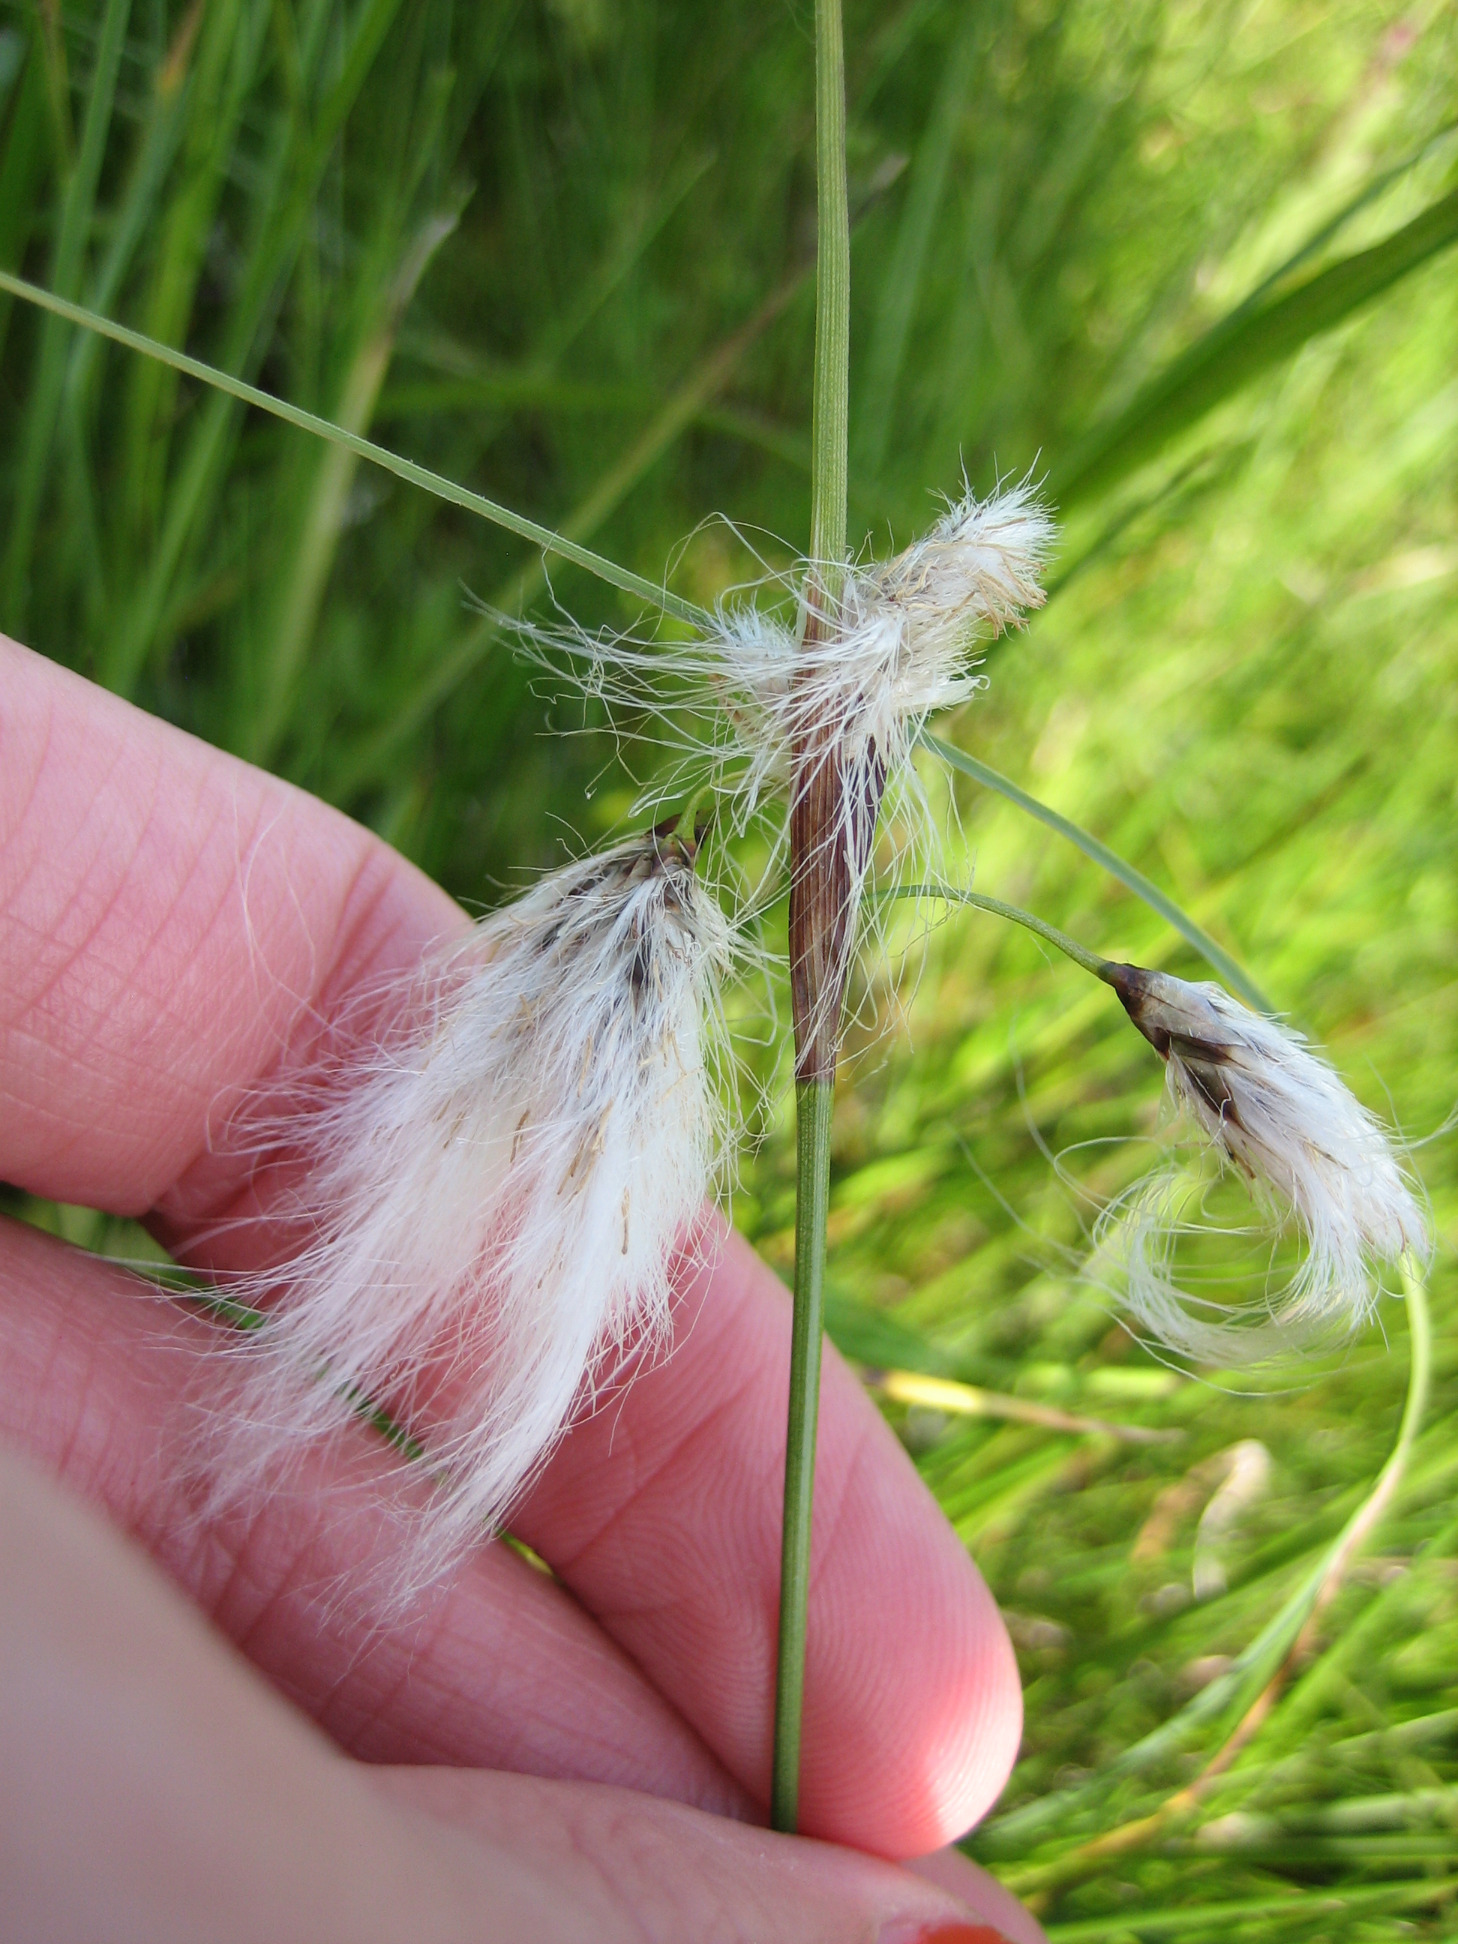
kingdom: Plantae
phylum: Tracheophyta
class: Liliopsida
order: Poales
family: Cyperaceae
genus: Eriophorum
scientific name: Eriophorum angustifolium
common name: Smalbladet kæruld
